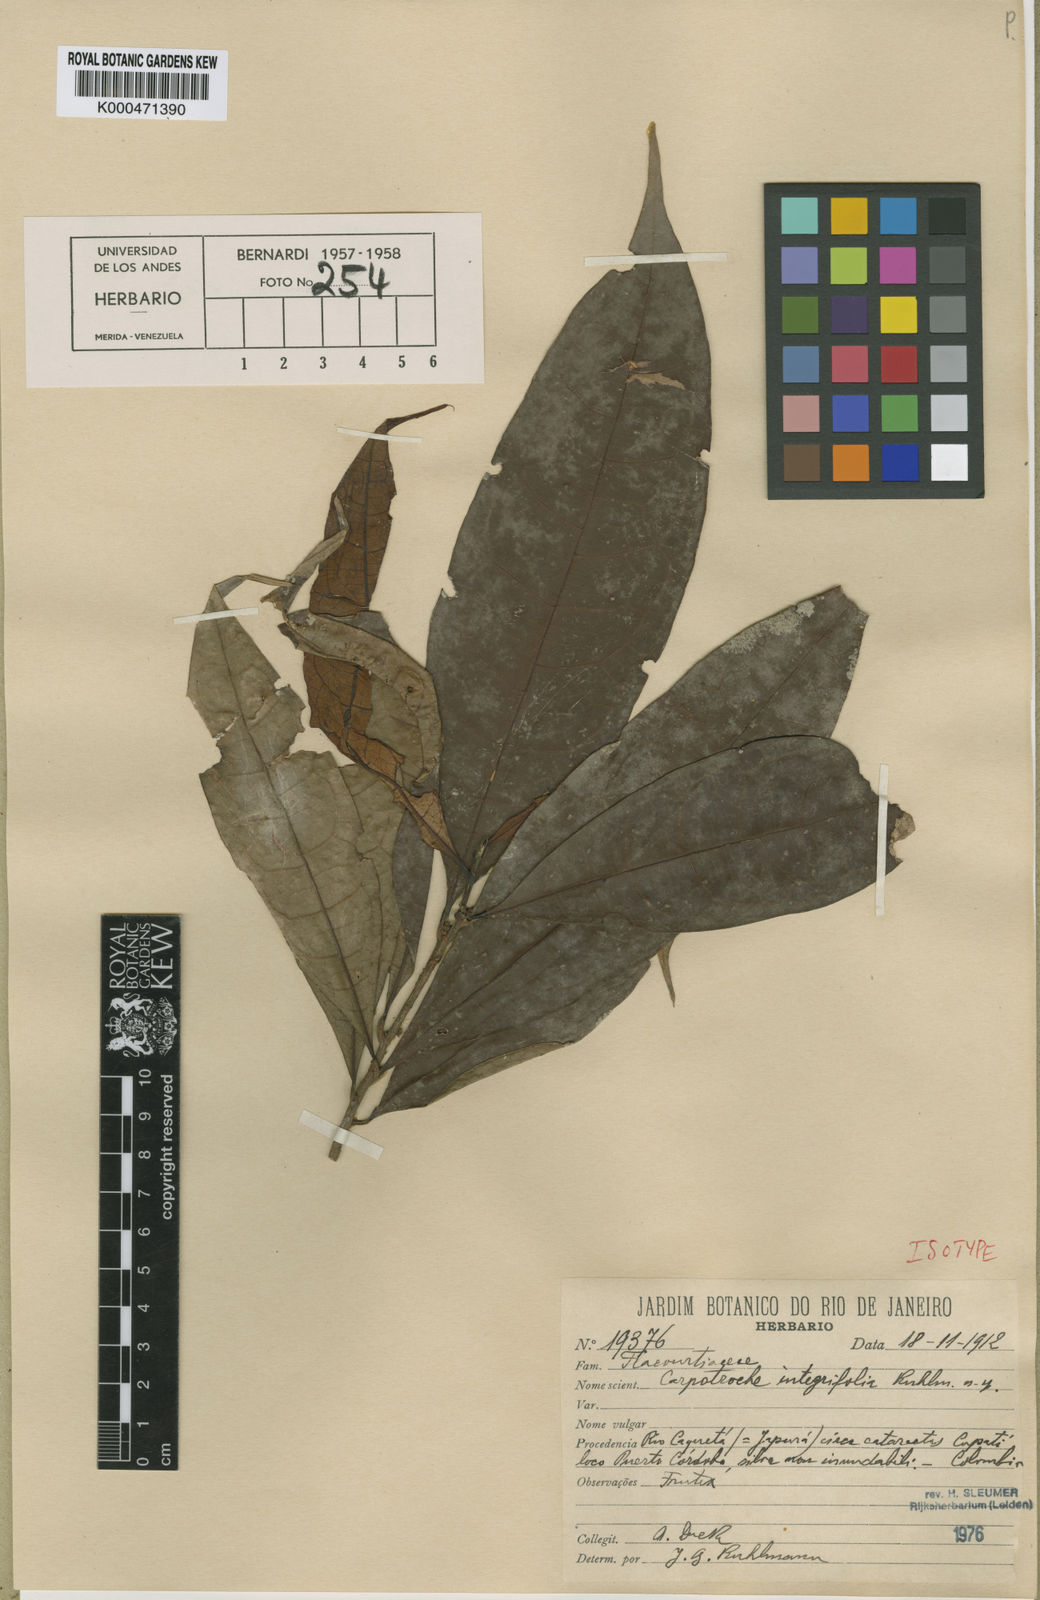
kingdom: Plantae
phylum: Tracheophyta
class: Magnoliopsida
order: Malpighiales
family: Achariaceae
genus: Carpotroche
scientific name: Carpotroche integrifolia
